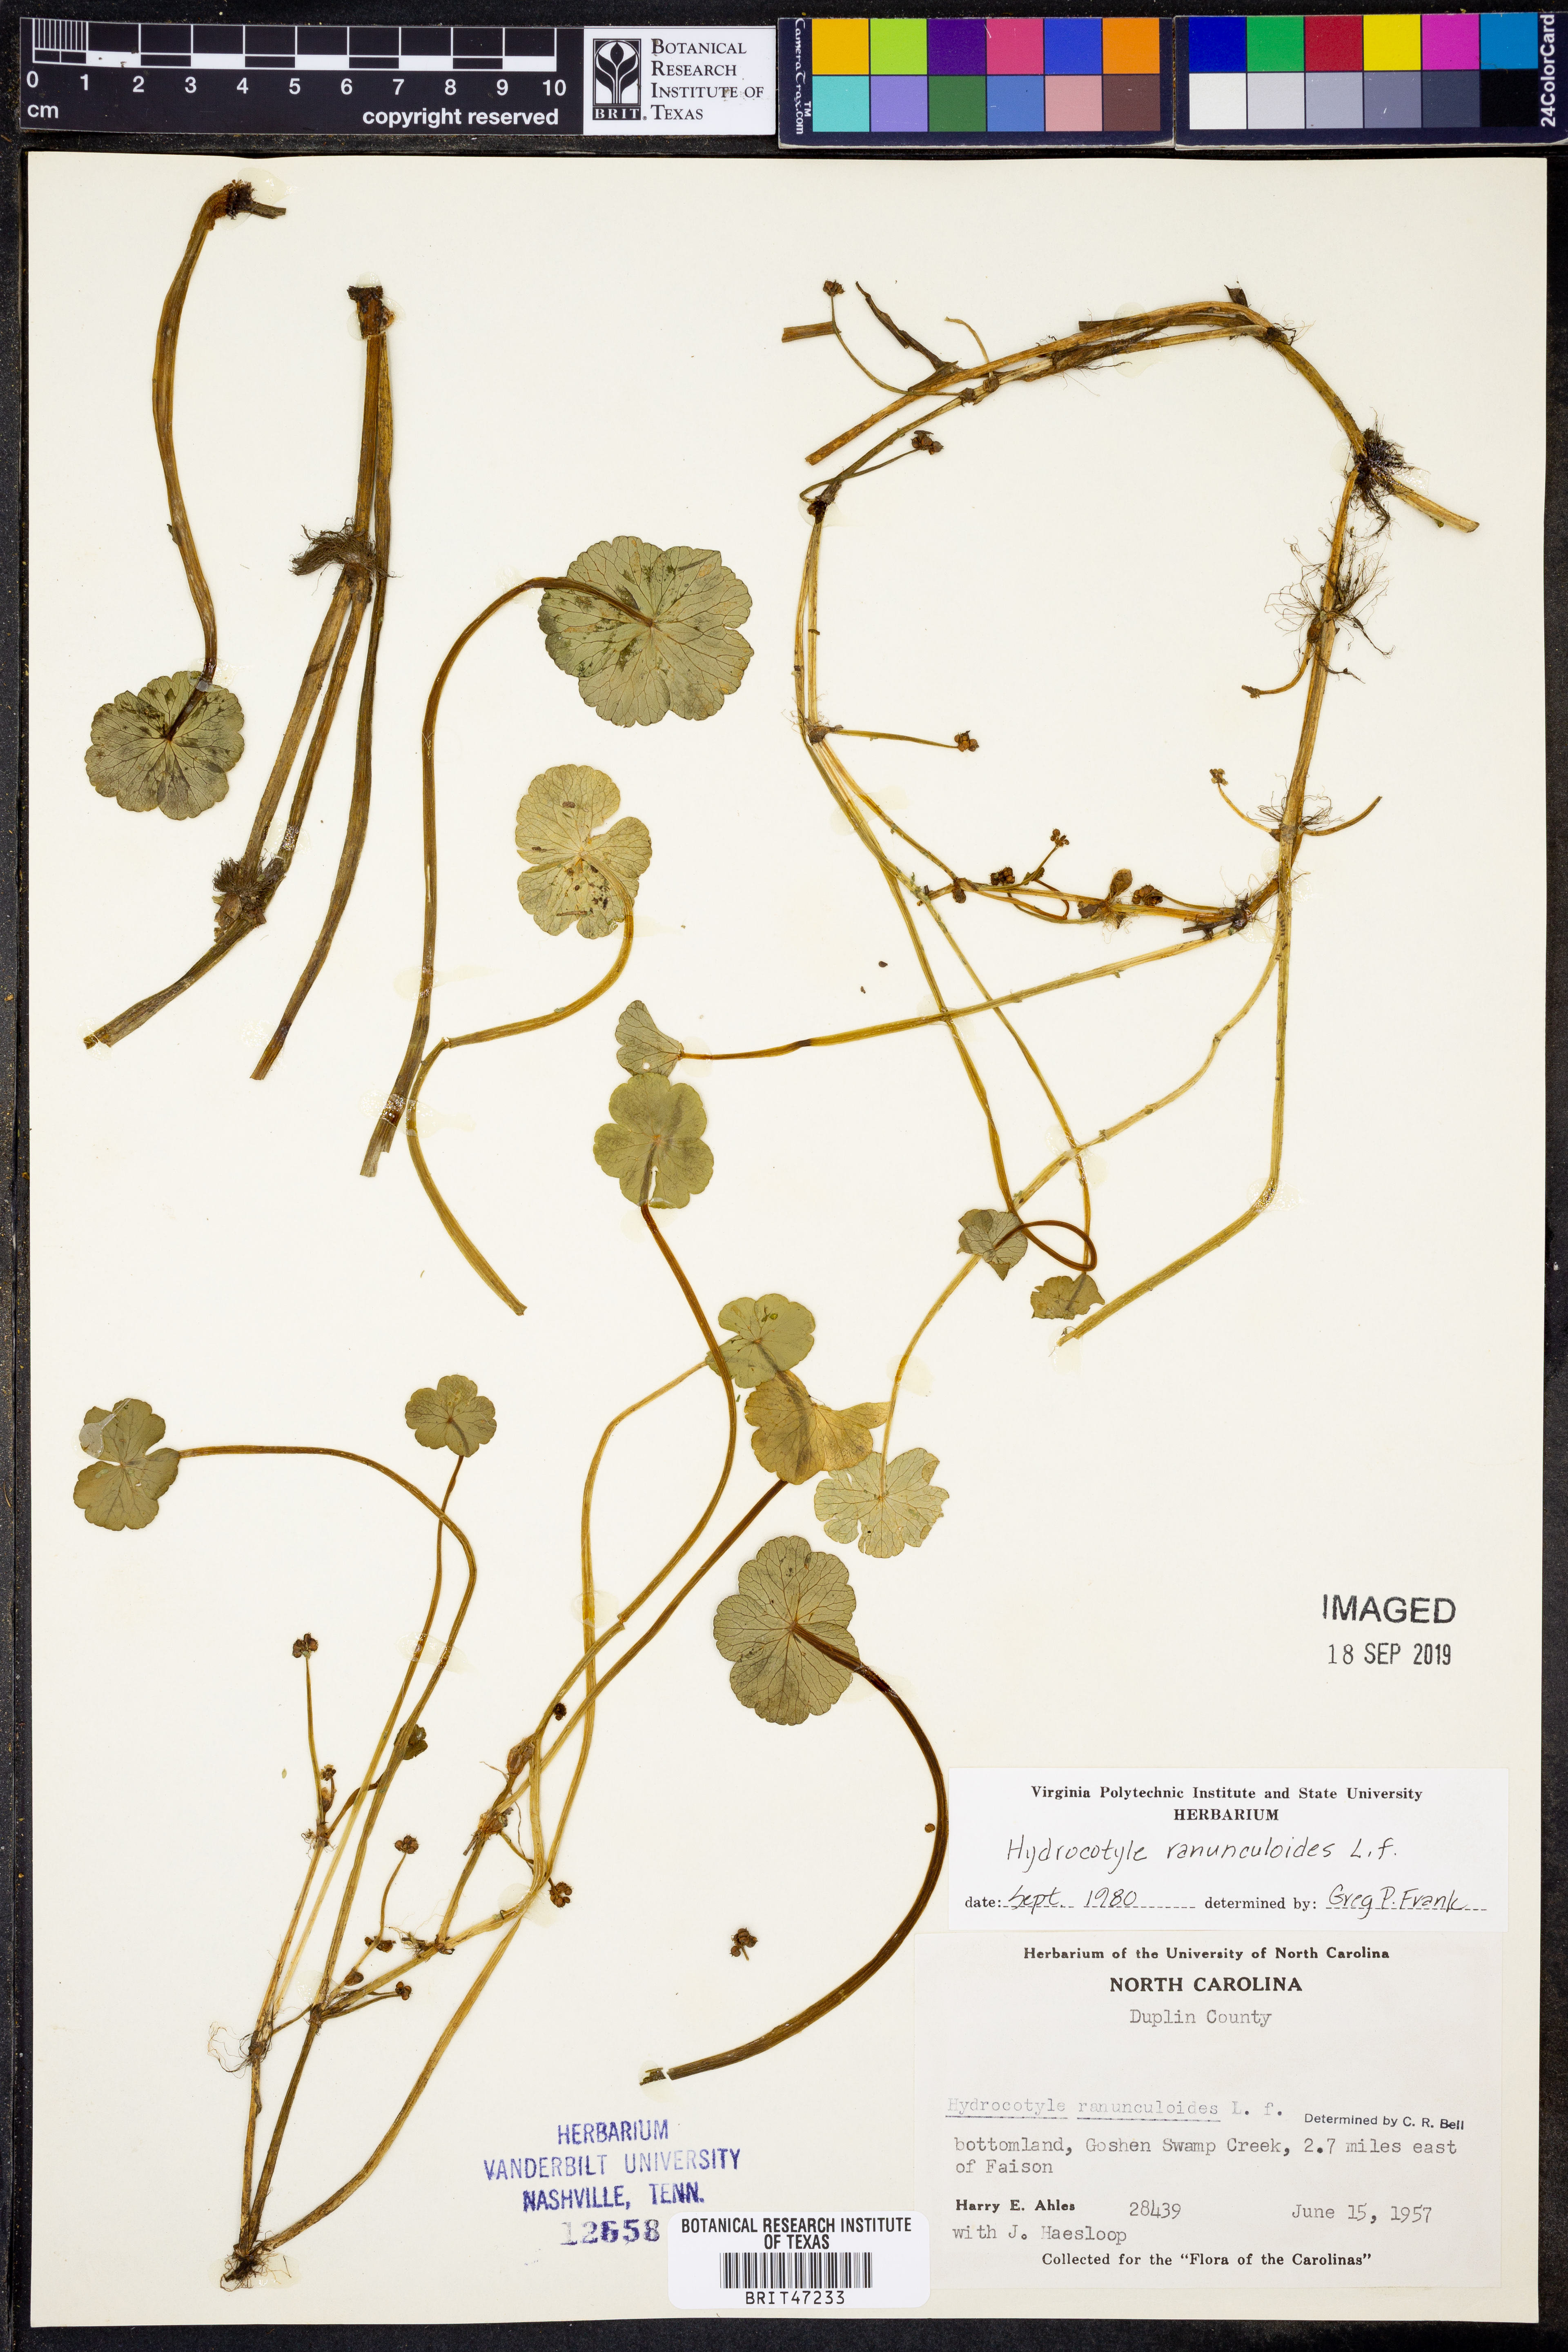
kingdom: Plantae
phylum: Tracheophyta
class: Magnoliopsida
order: Apiales
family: Araliaceae
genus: Hydrocotyle
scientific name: Hydrocotyle ranunculoides
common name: Floating pennywort
